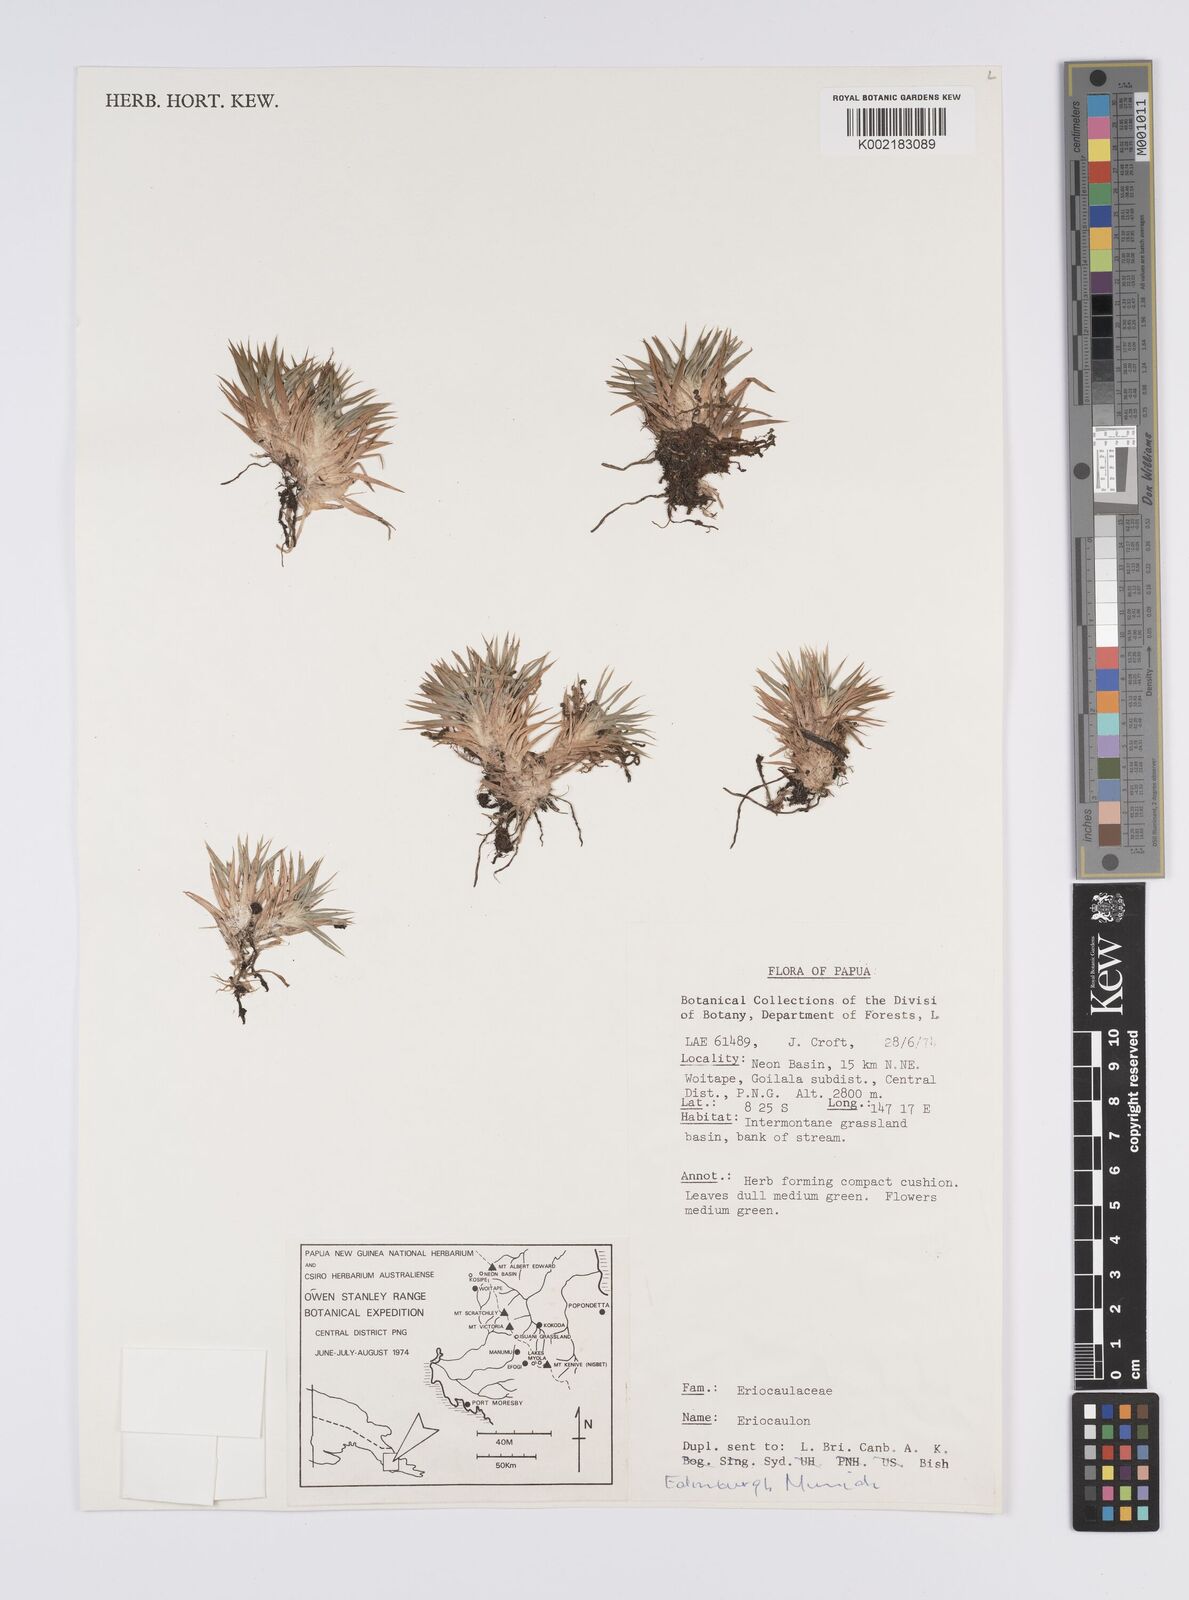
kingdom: Plantae
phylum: Tracheophyta
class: Liliopsida
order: Poales
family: Eriocaulaceae
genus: Eriocaulon
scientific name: Eriocaulon
